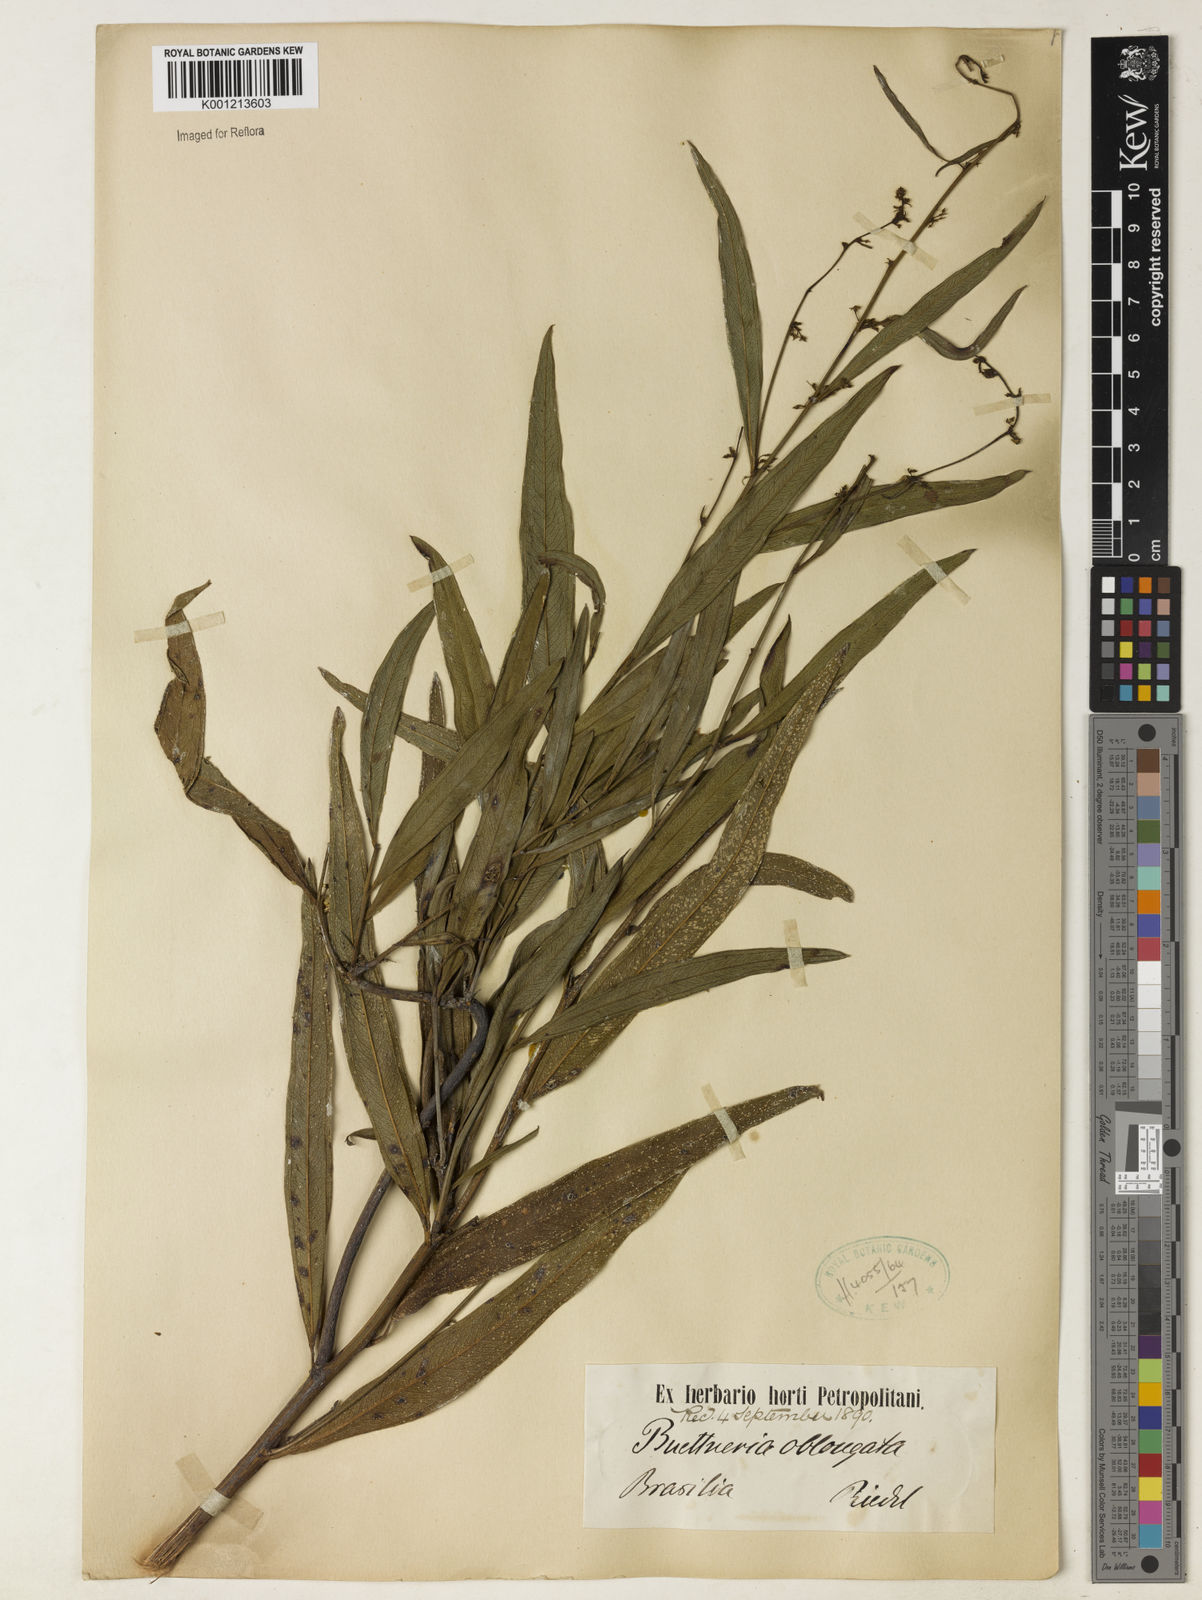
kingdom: Plantae
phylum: Tracheophyta
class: Magnoliopsida
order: Malvales
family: Malvaceae
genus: Byttneria
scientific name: Byttneria oblongata
